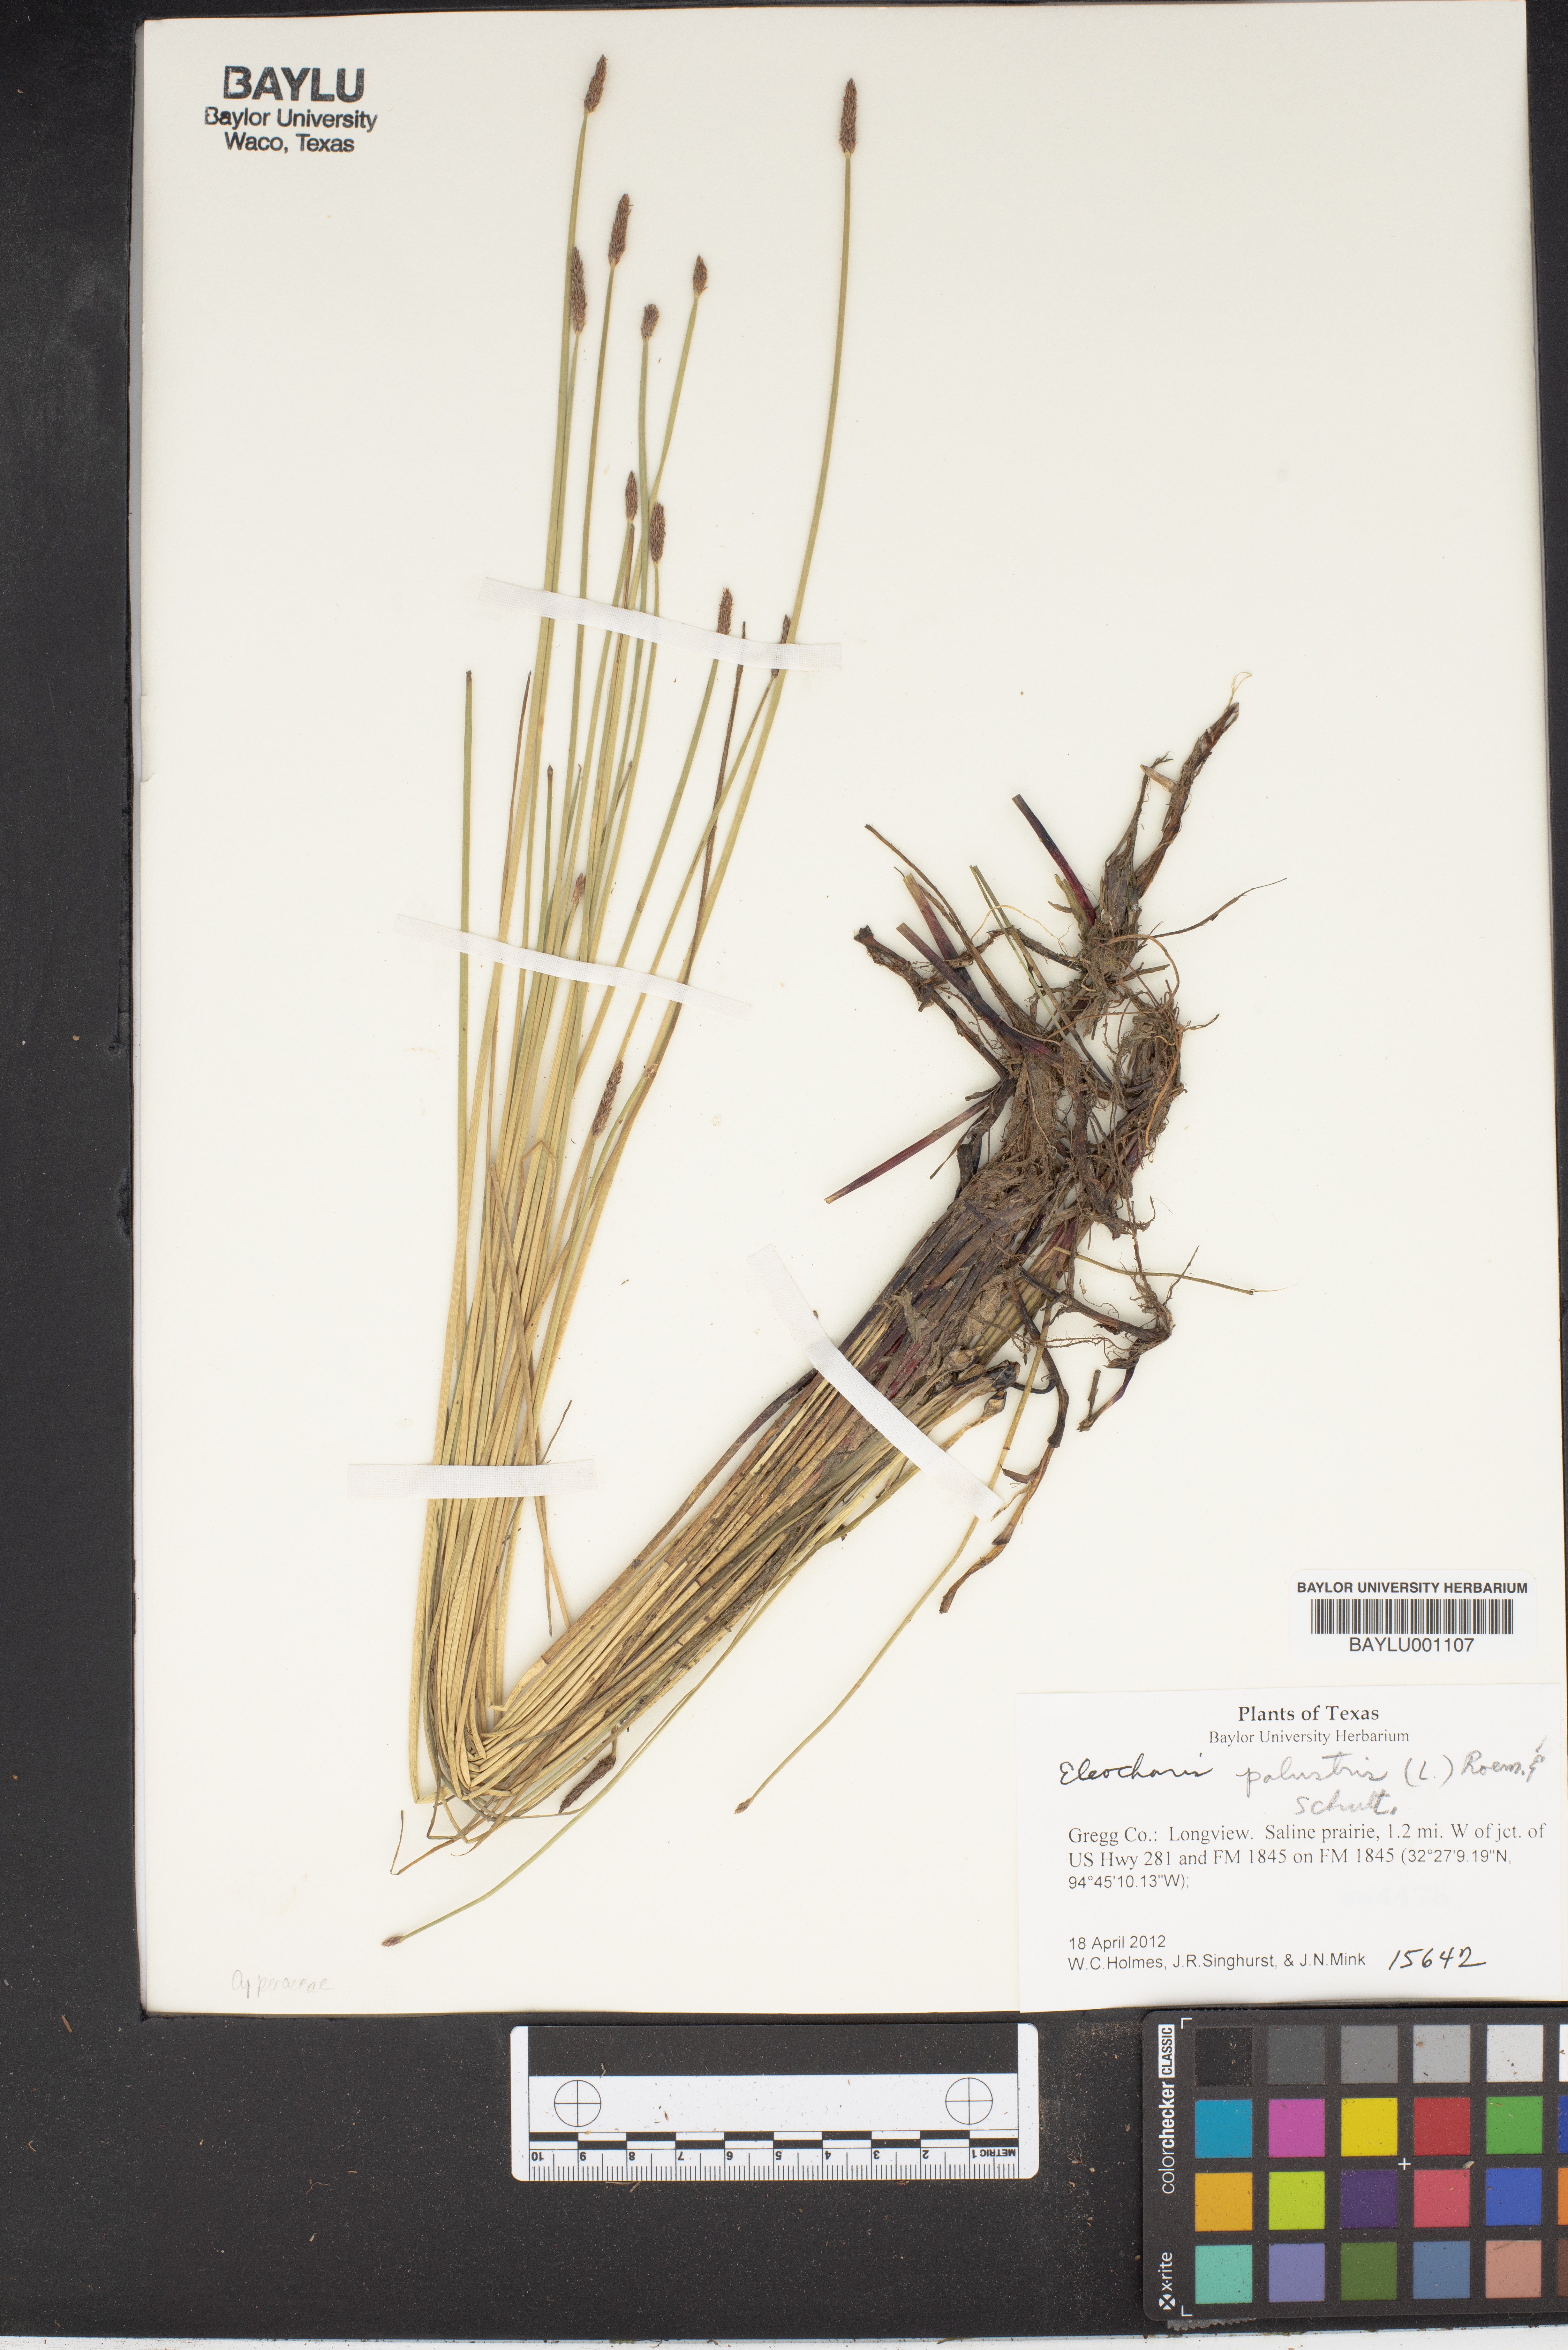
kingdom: Plantae
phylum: Tracheophyta
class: Liliopsida
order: Poales
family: Cyperaceae
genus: Eleocharis
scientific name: Eleocharis palustris
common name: Common spike-rush
